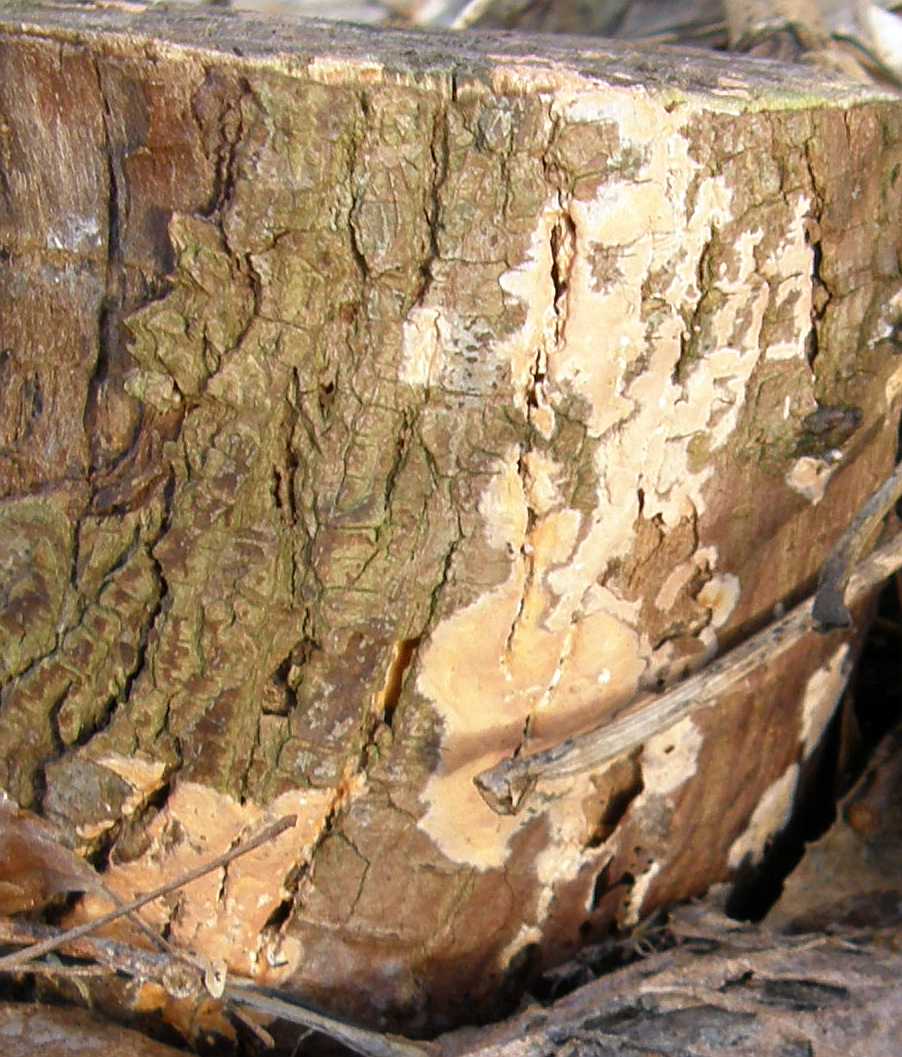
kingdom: Fungi
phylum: Basidiomycota
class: Agaricomycetes
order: Russulales
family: Peniophoraceae
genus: Peniophora
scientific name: Peniophora incarnata
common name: laksefarvet voksskind
